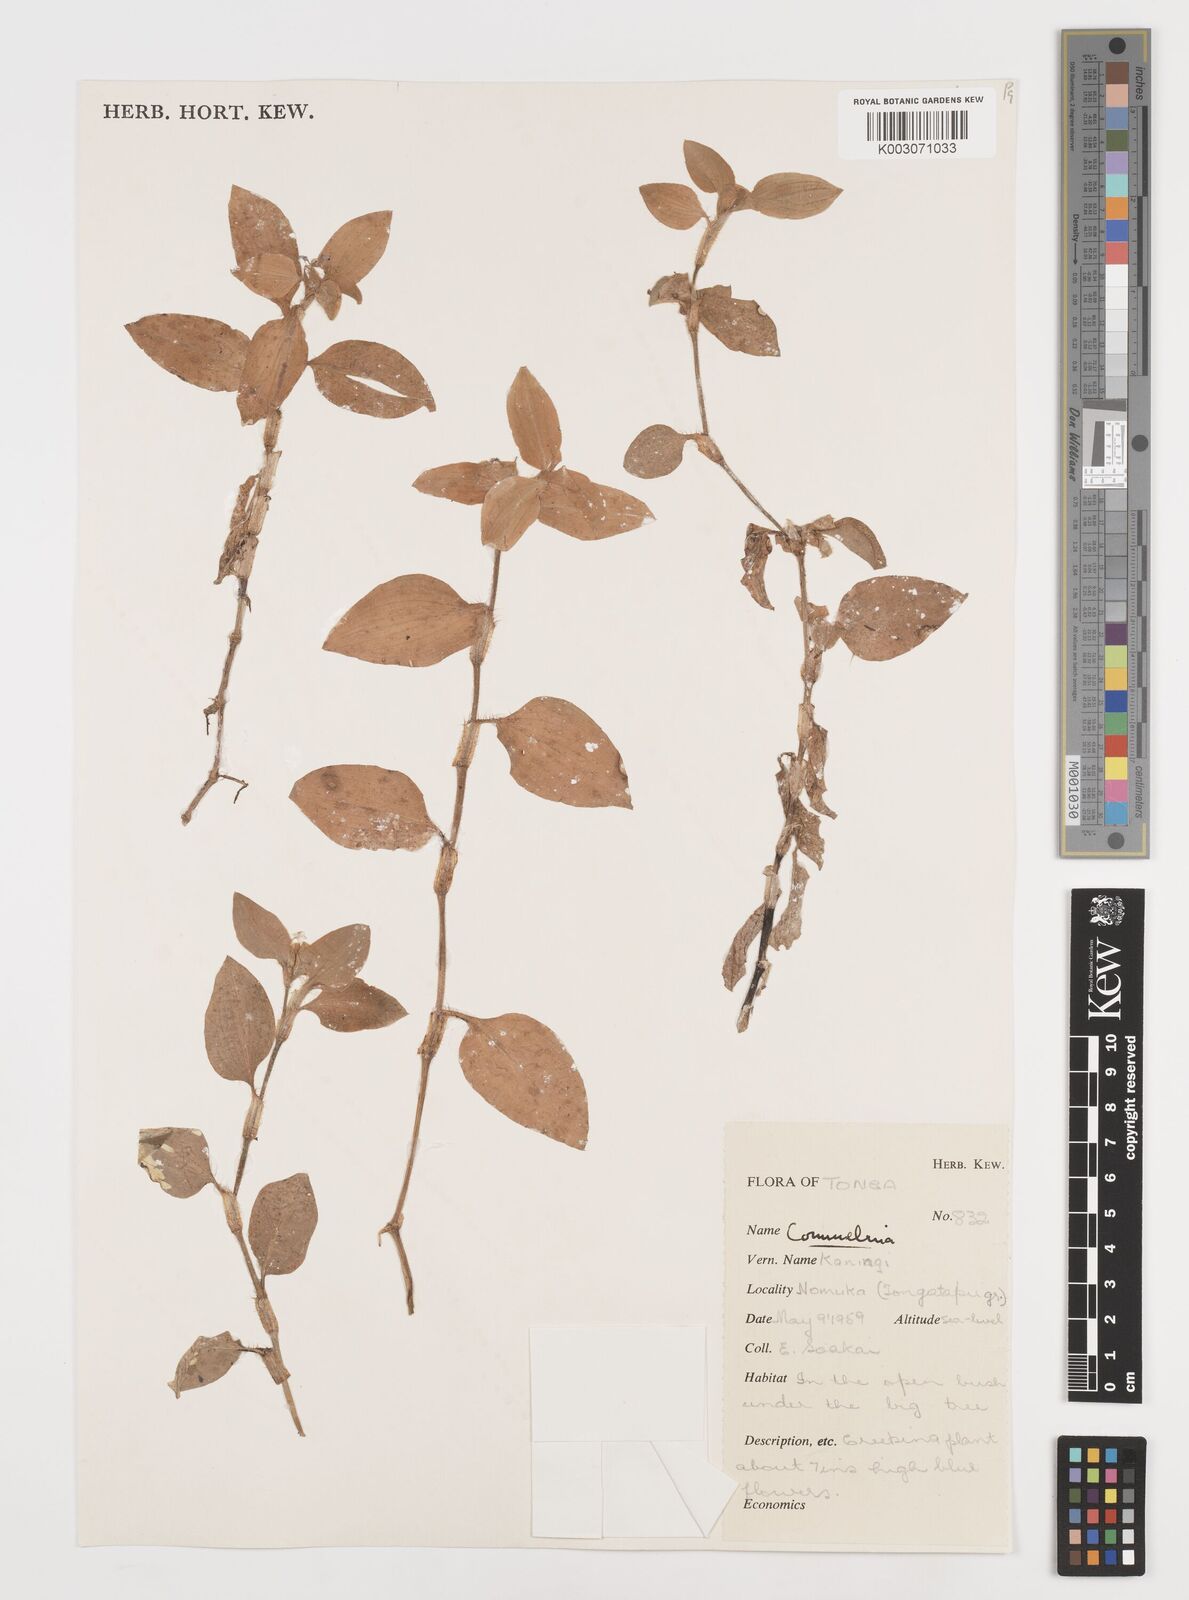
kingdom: Plantae
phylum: Tracheophyta
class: Liliopsida
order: Commelinales
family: Commelinaceae
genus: Commelina
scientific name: Commelina
